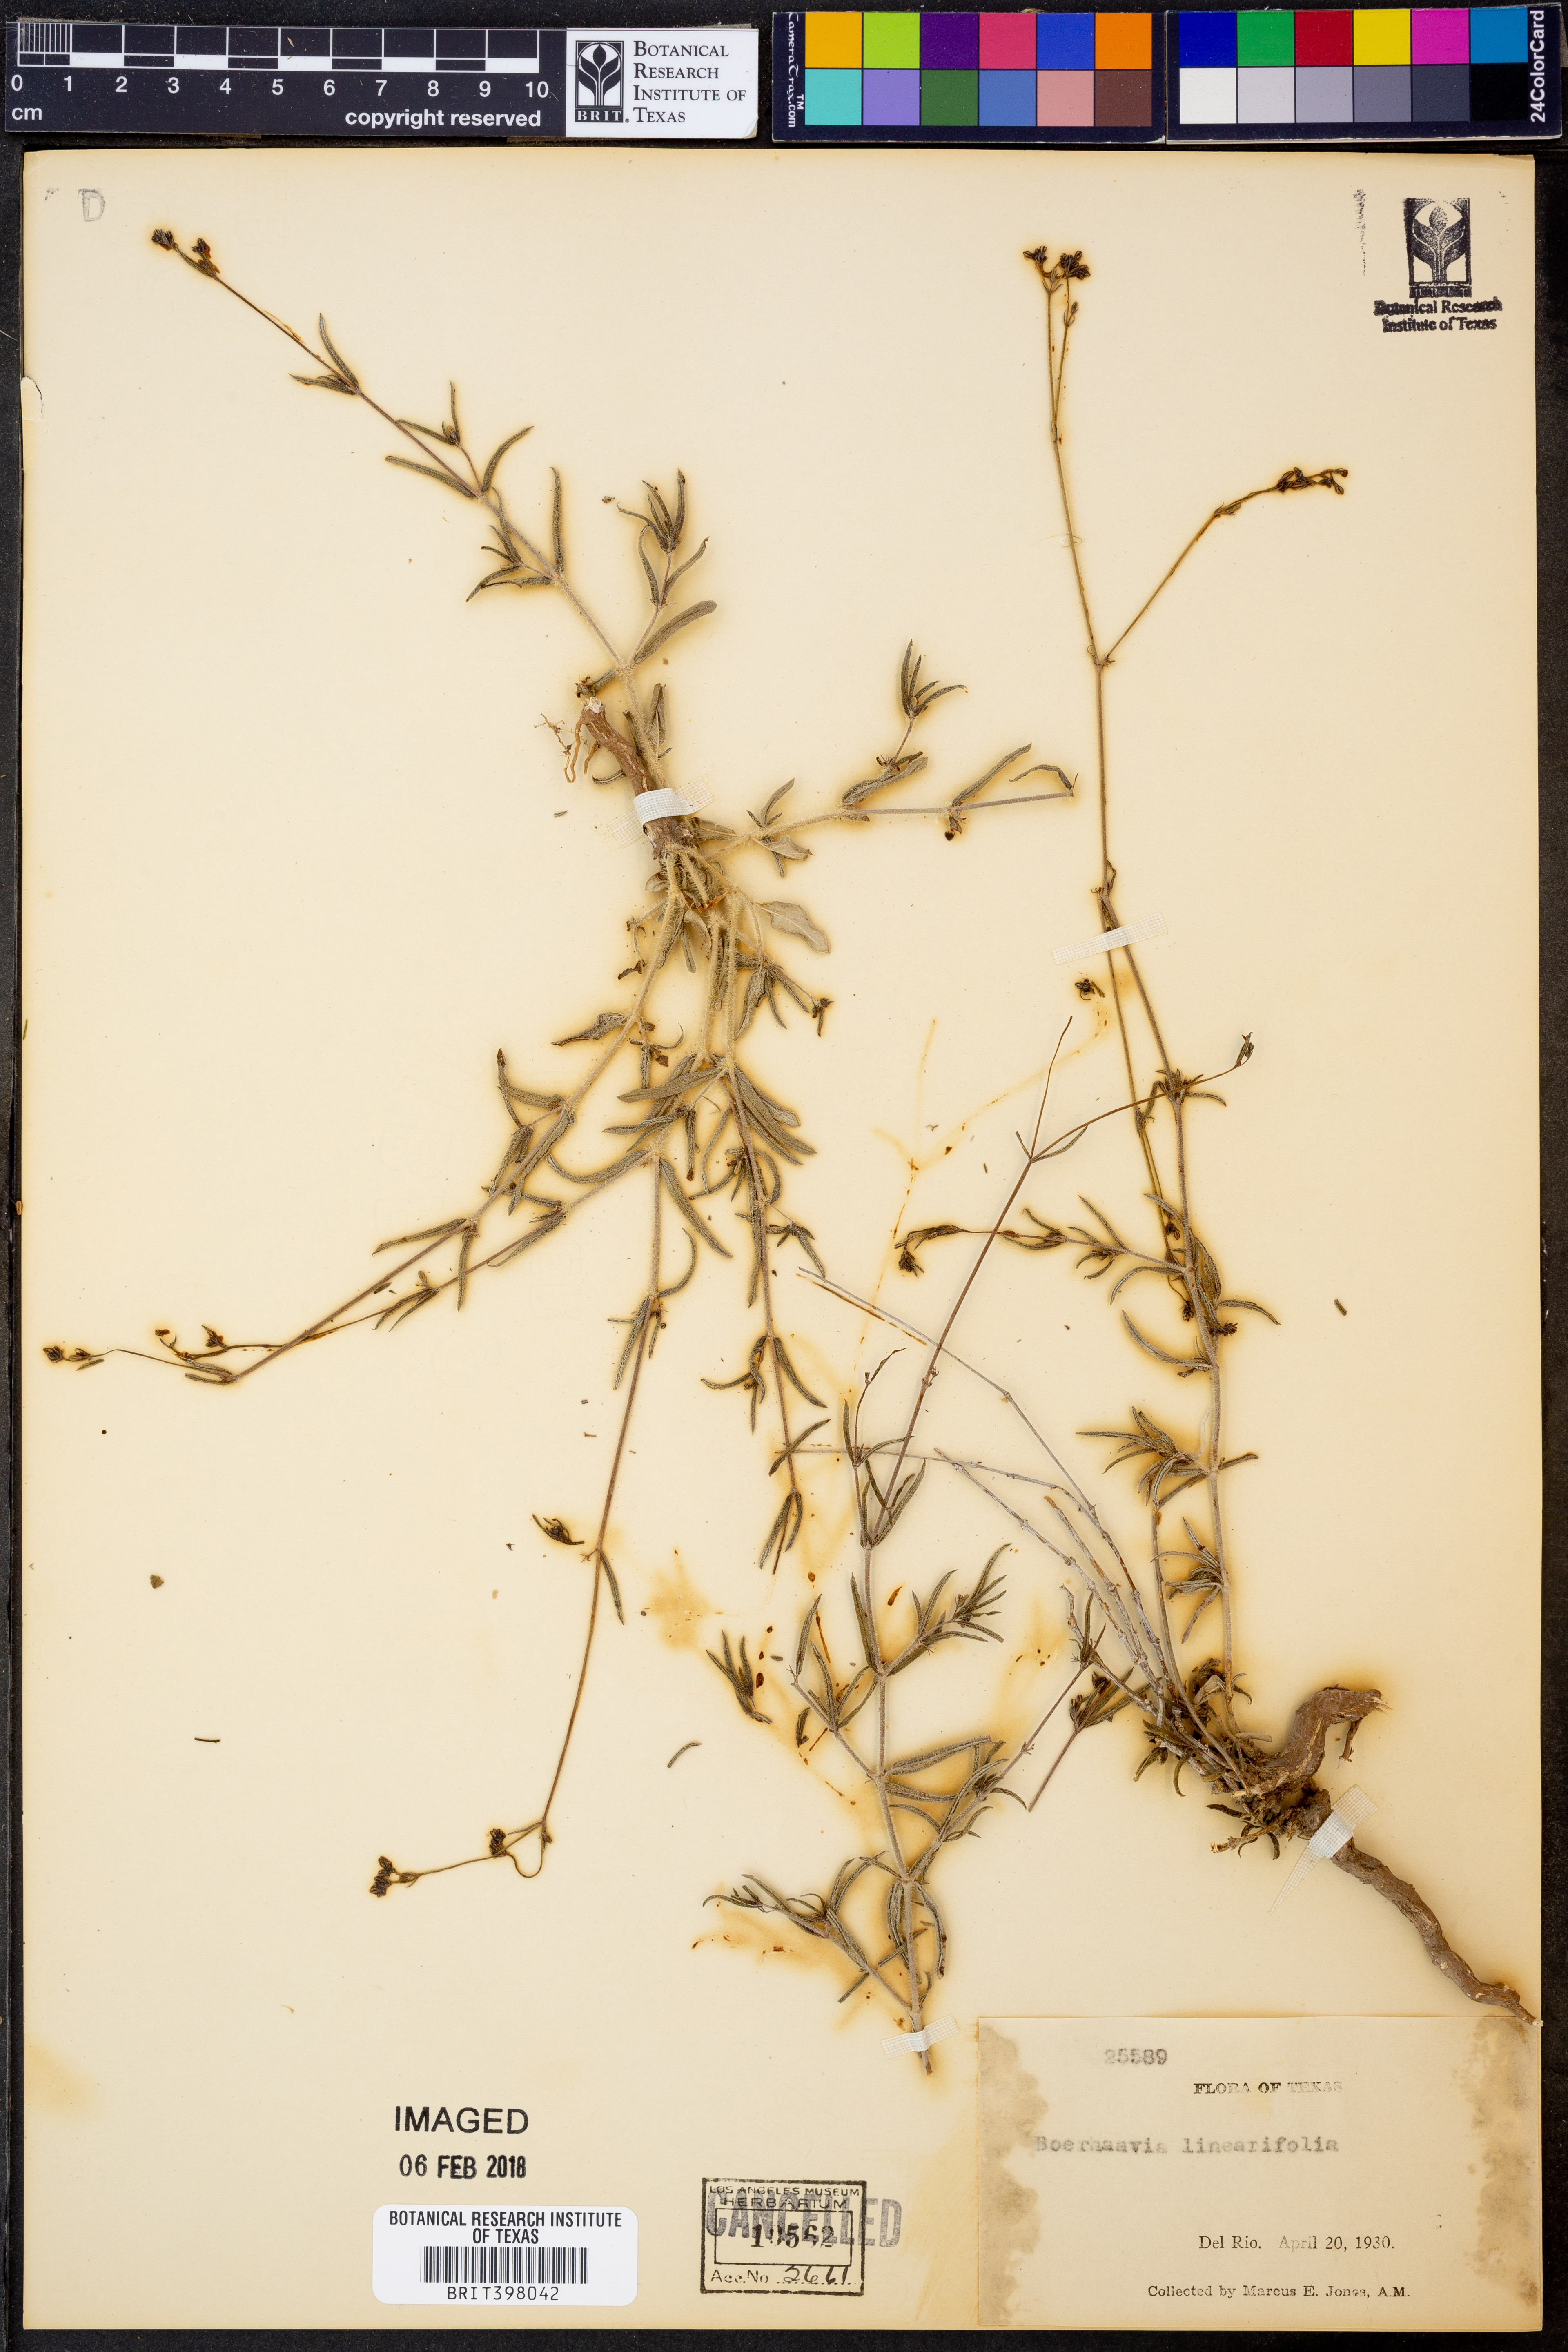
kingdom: Plantae
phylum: Tracheophyta
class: Magnoliopsida
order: Caryophyllales
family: Nyctaginaceae
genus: Boerhavia
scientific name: Boerhavia linearifolia
